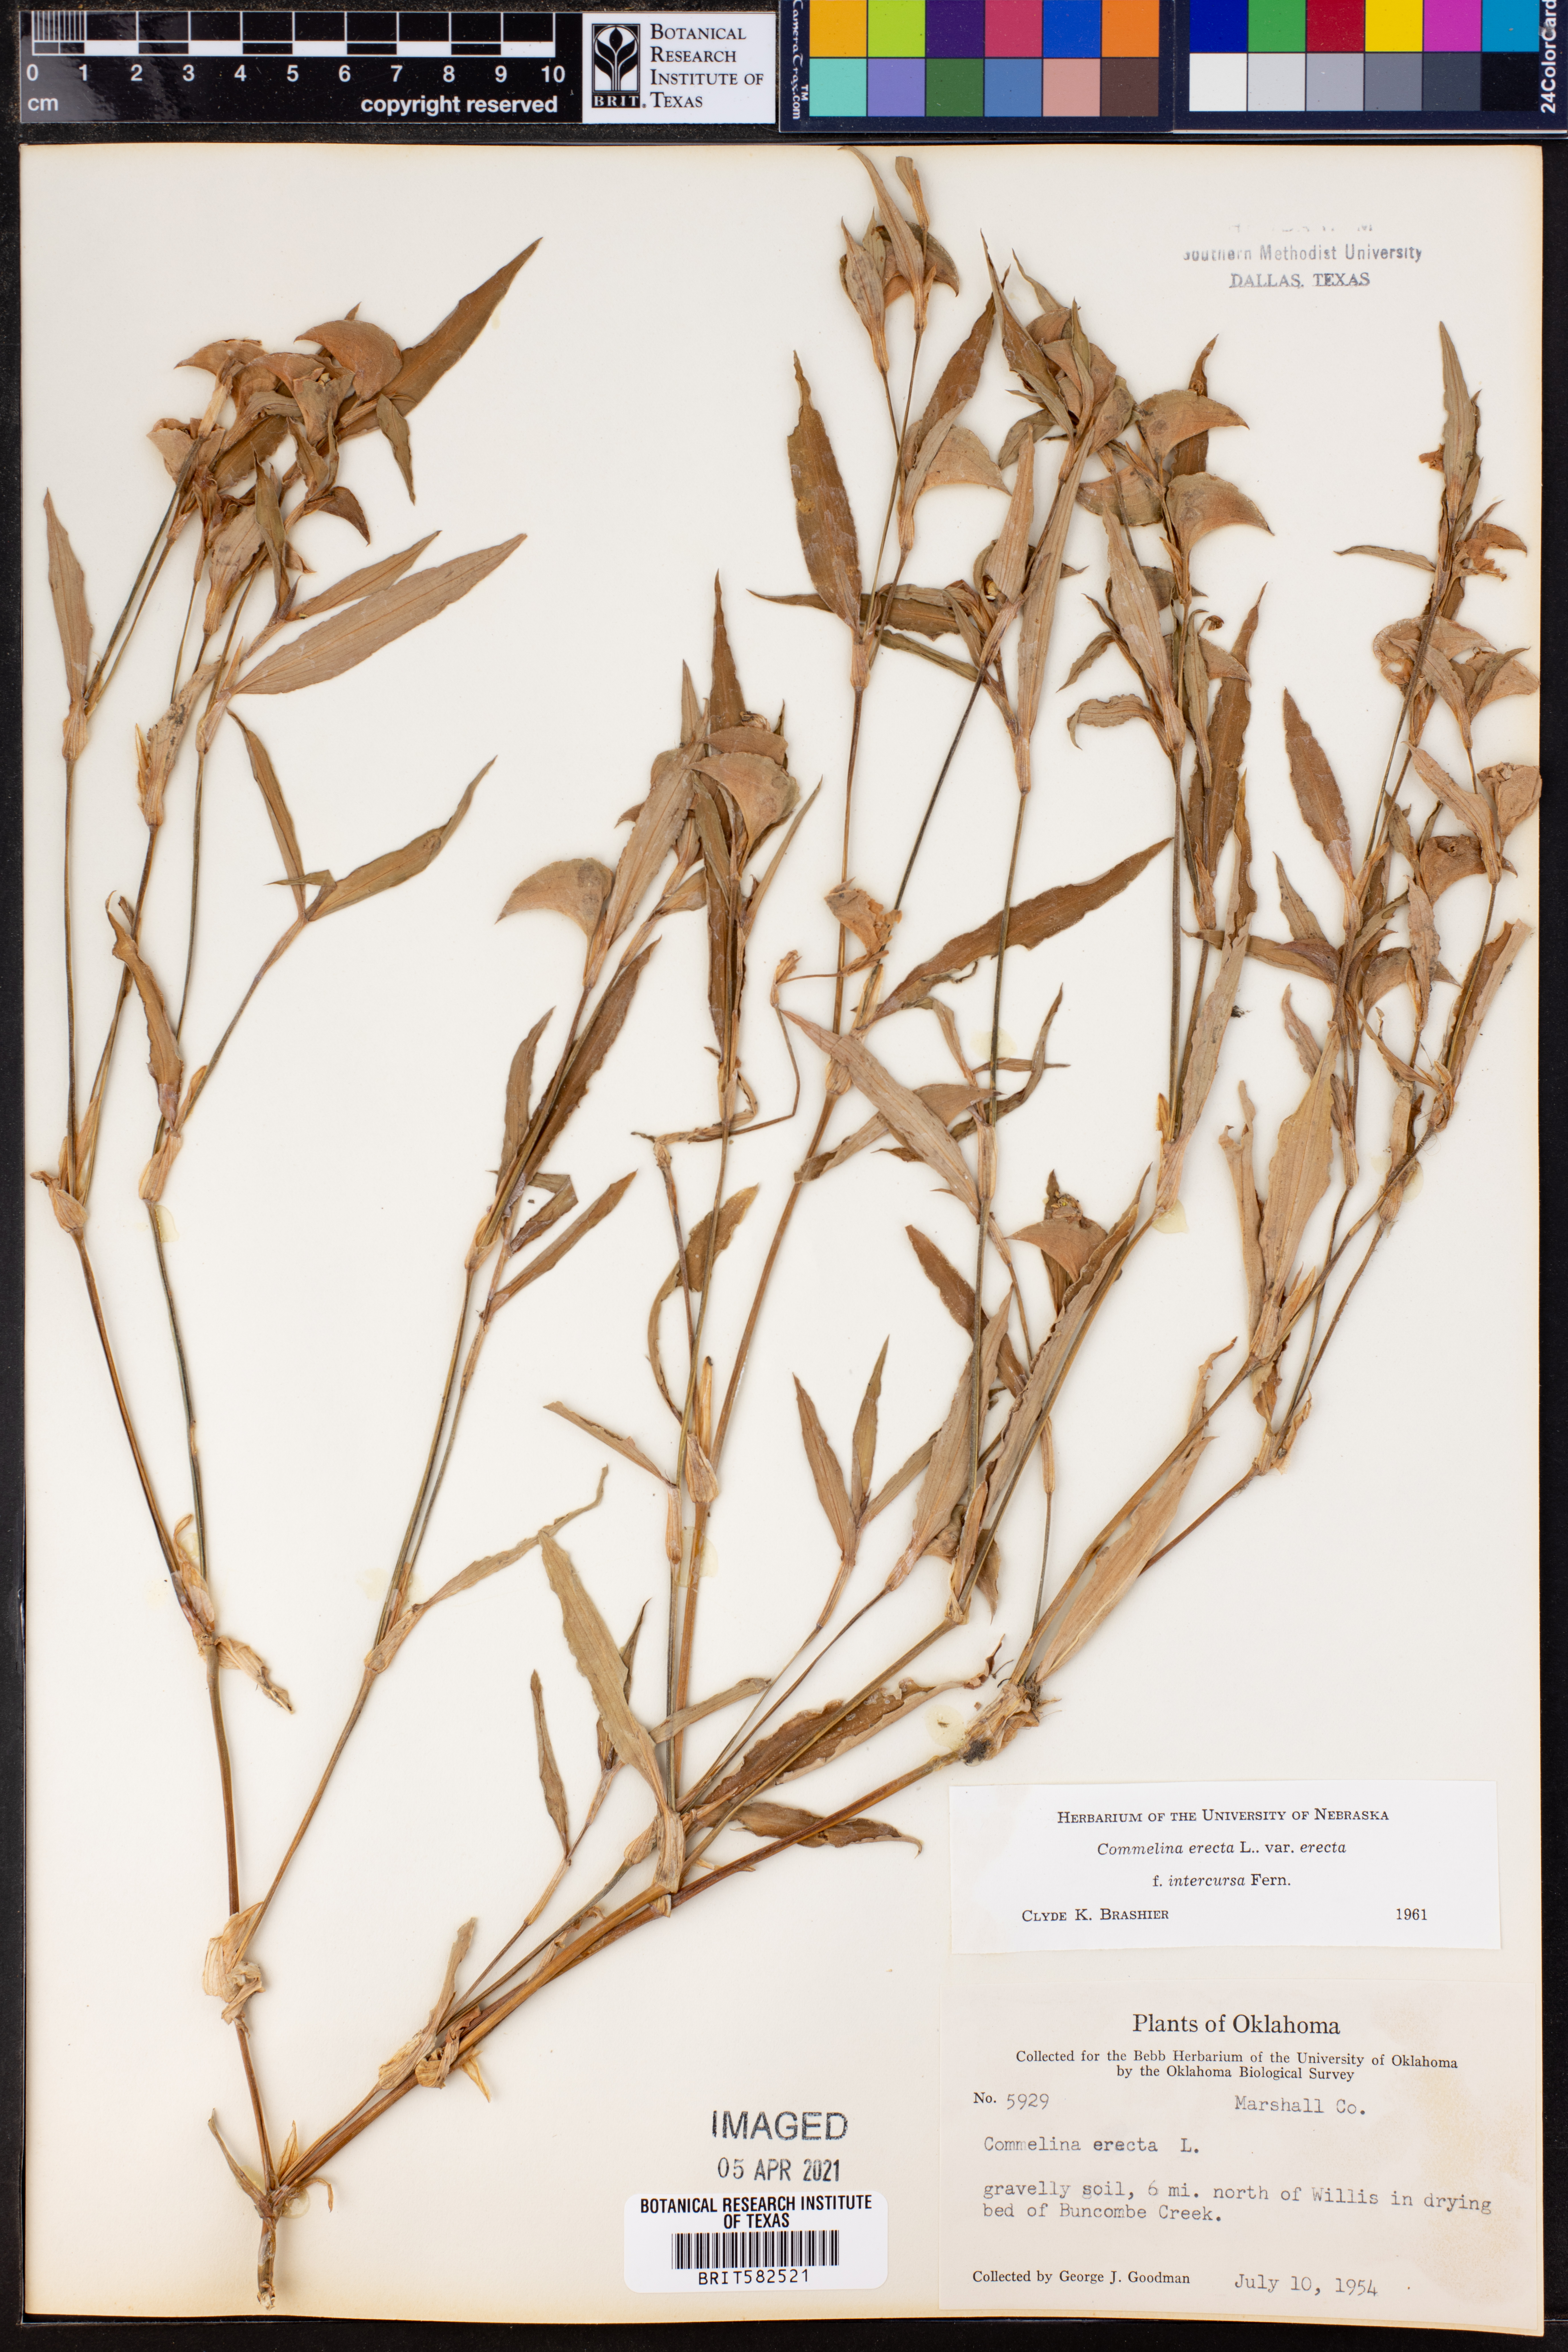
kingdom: Plantae
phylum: Tracheophyta
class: Liliopsida
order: Commelinales
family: Commelinaceae
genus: Commelina
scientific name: Commelina erecta
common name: Blousel blommetjie
